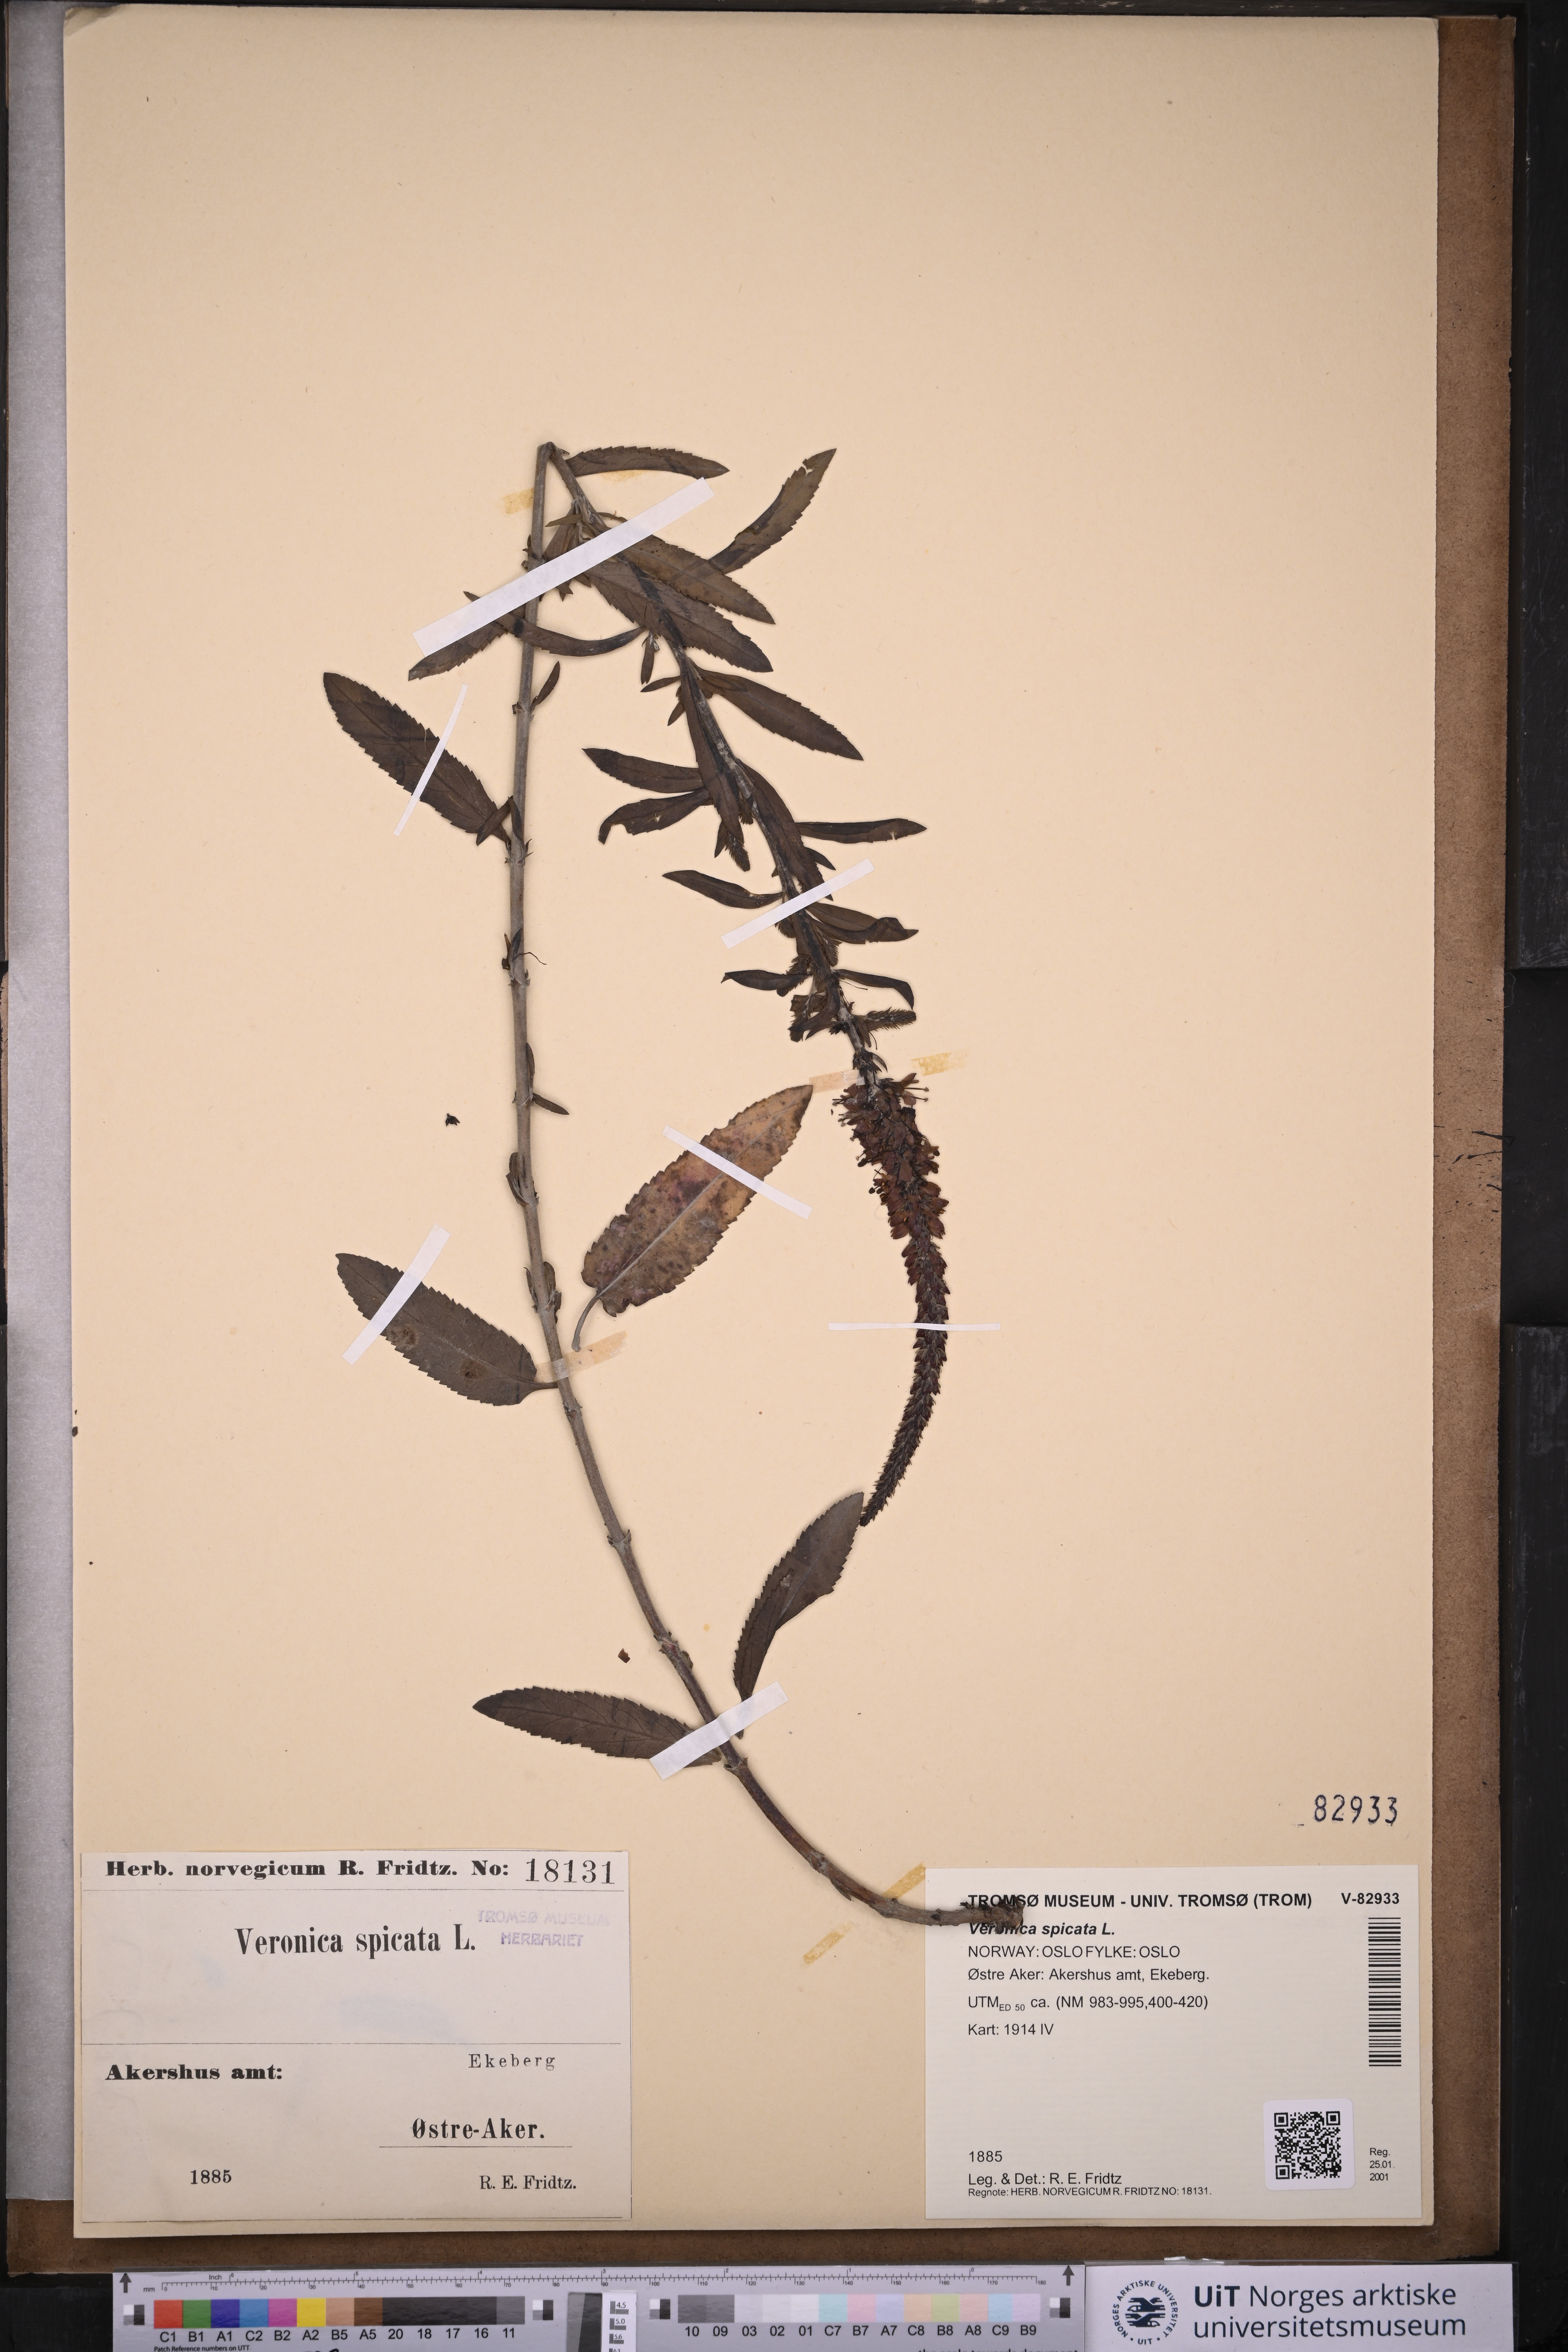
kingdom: Plantae
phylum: Tracheophyta
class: Magnoliopsida
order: Lamiales
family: Plantaginaceae
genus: Veronica
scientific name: Veronica spicata
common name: Spiked speedwell
